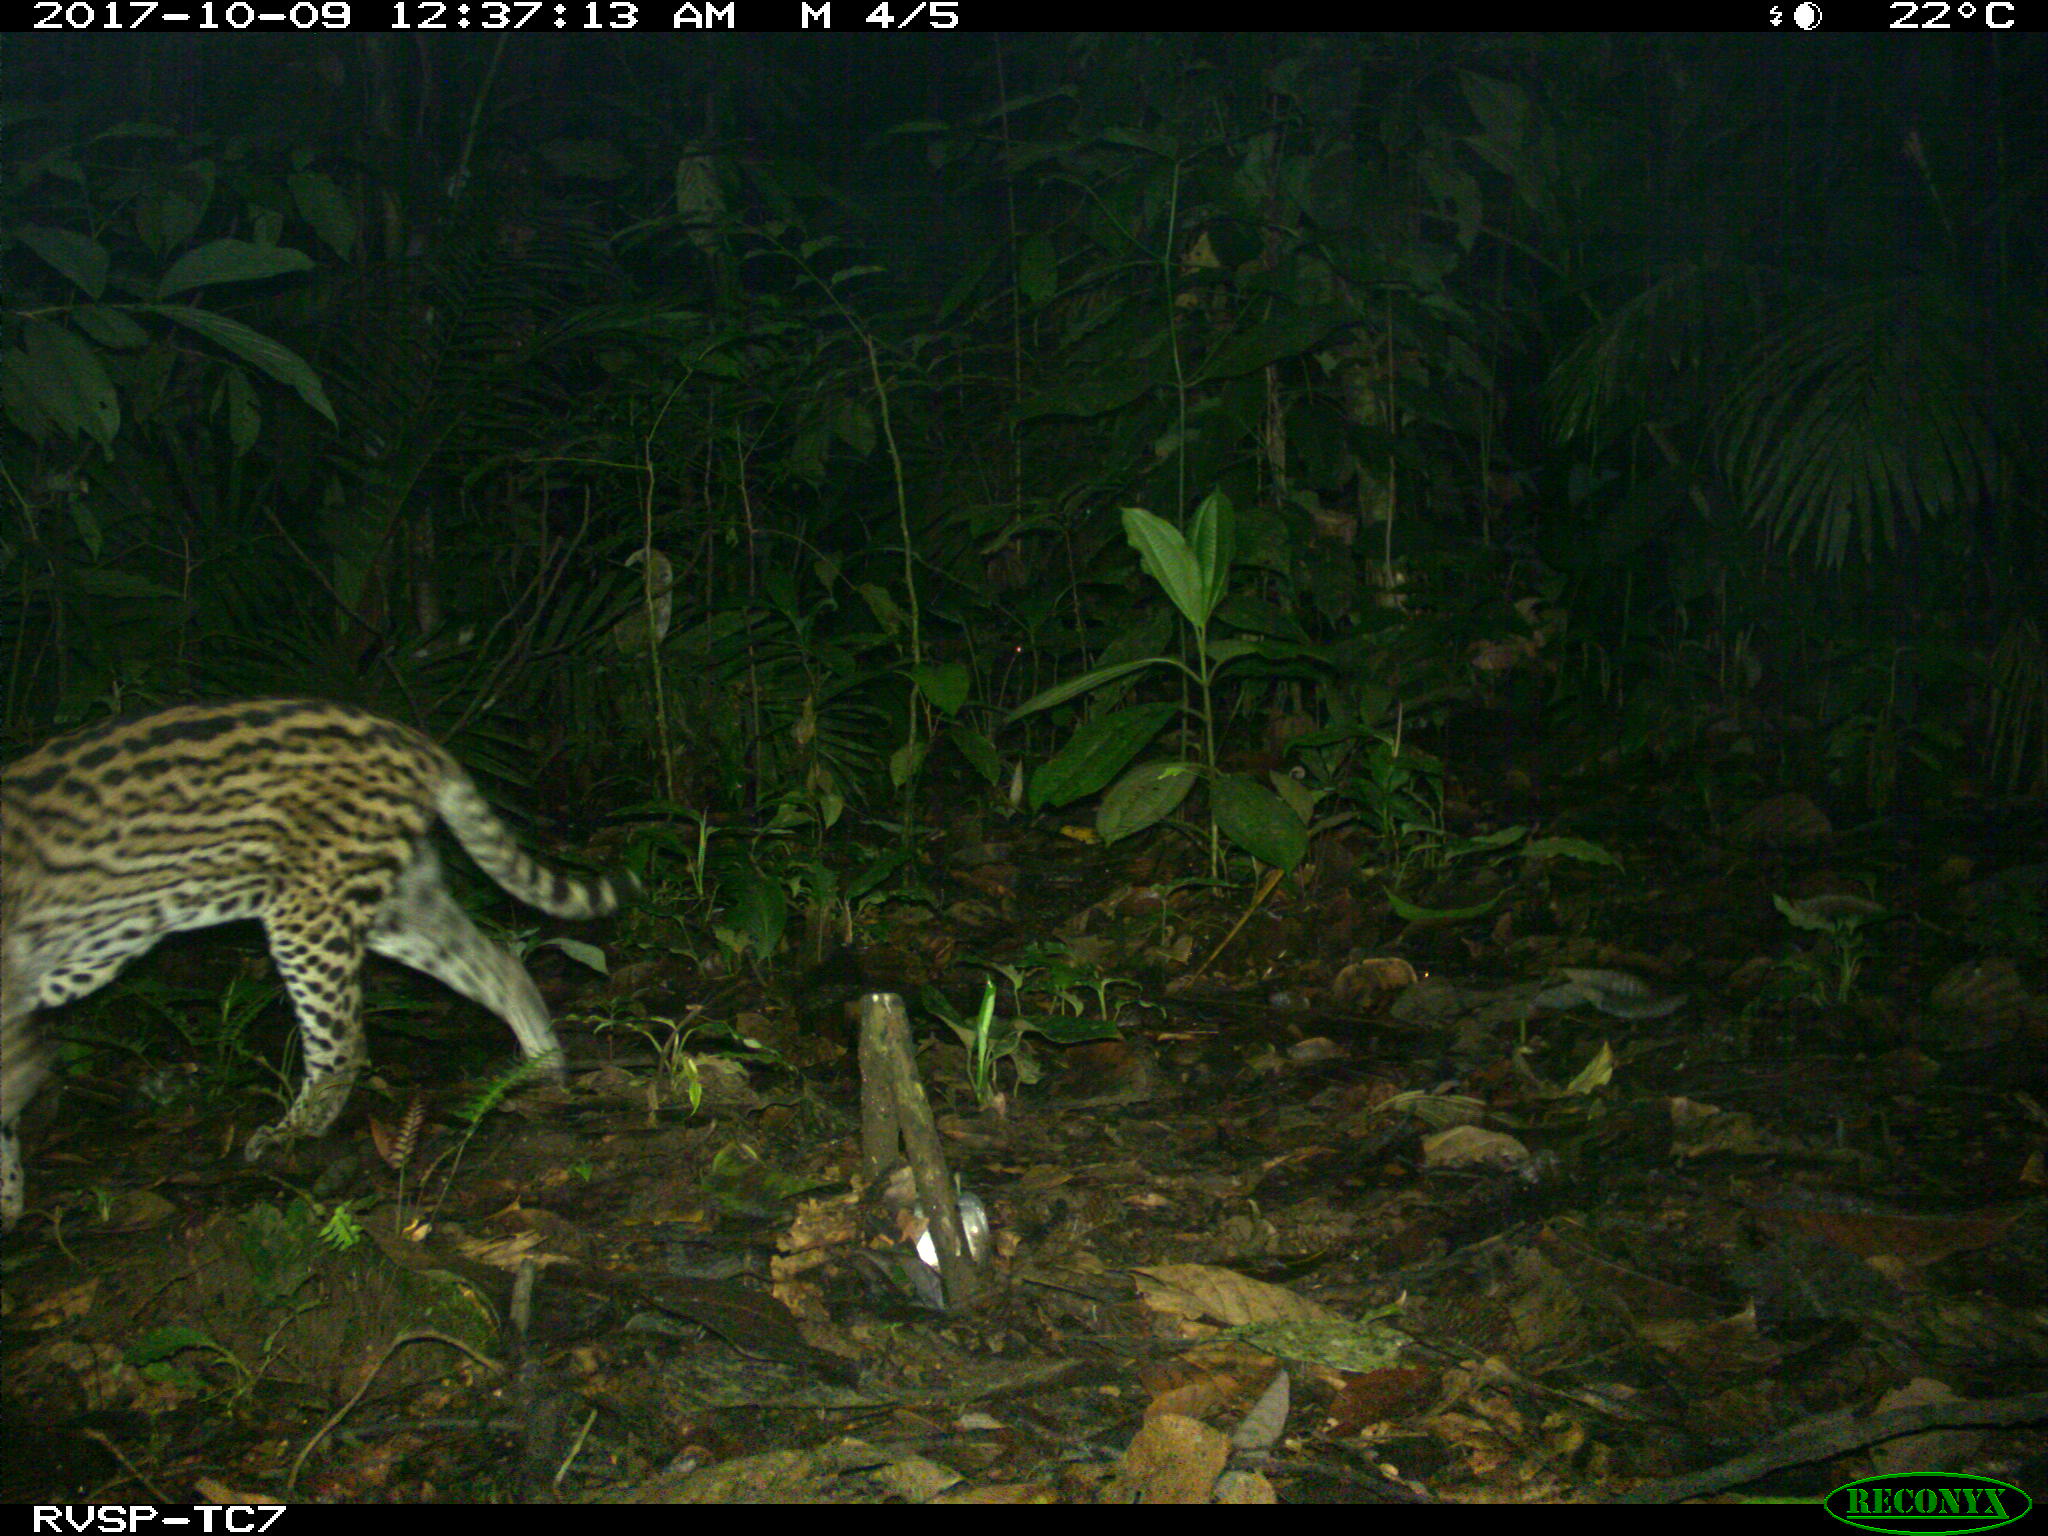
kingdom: Animalia
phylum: Chordata
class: Mammalia
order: Carnivora
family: Felidae
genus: Leopardus
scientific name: Leopardus pardalis
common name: Ocelot
